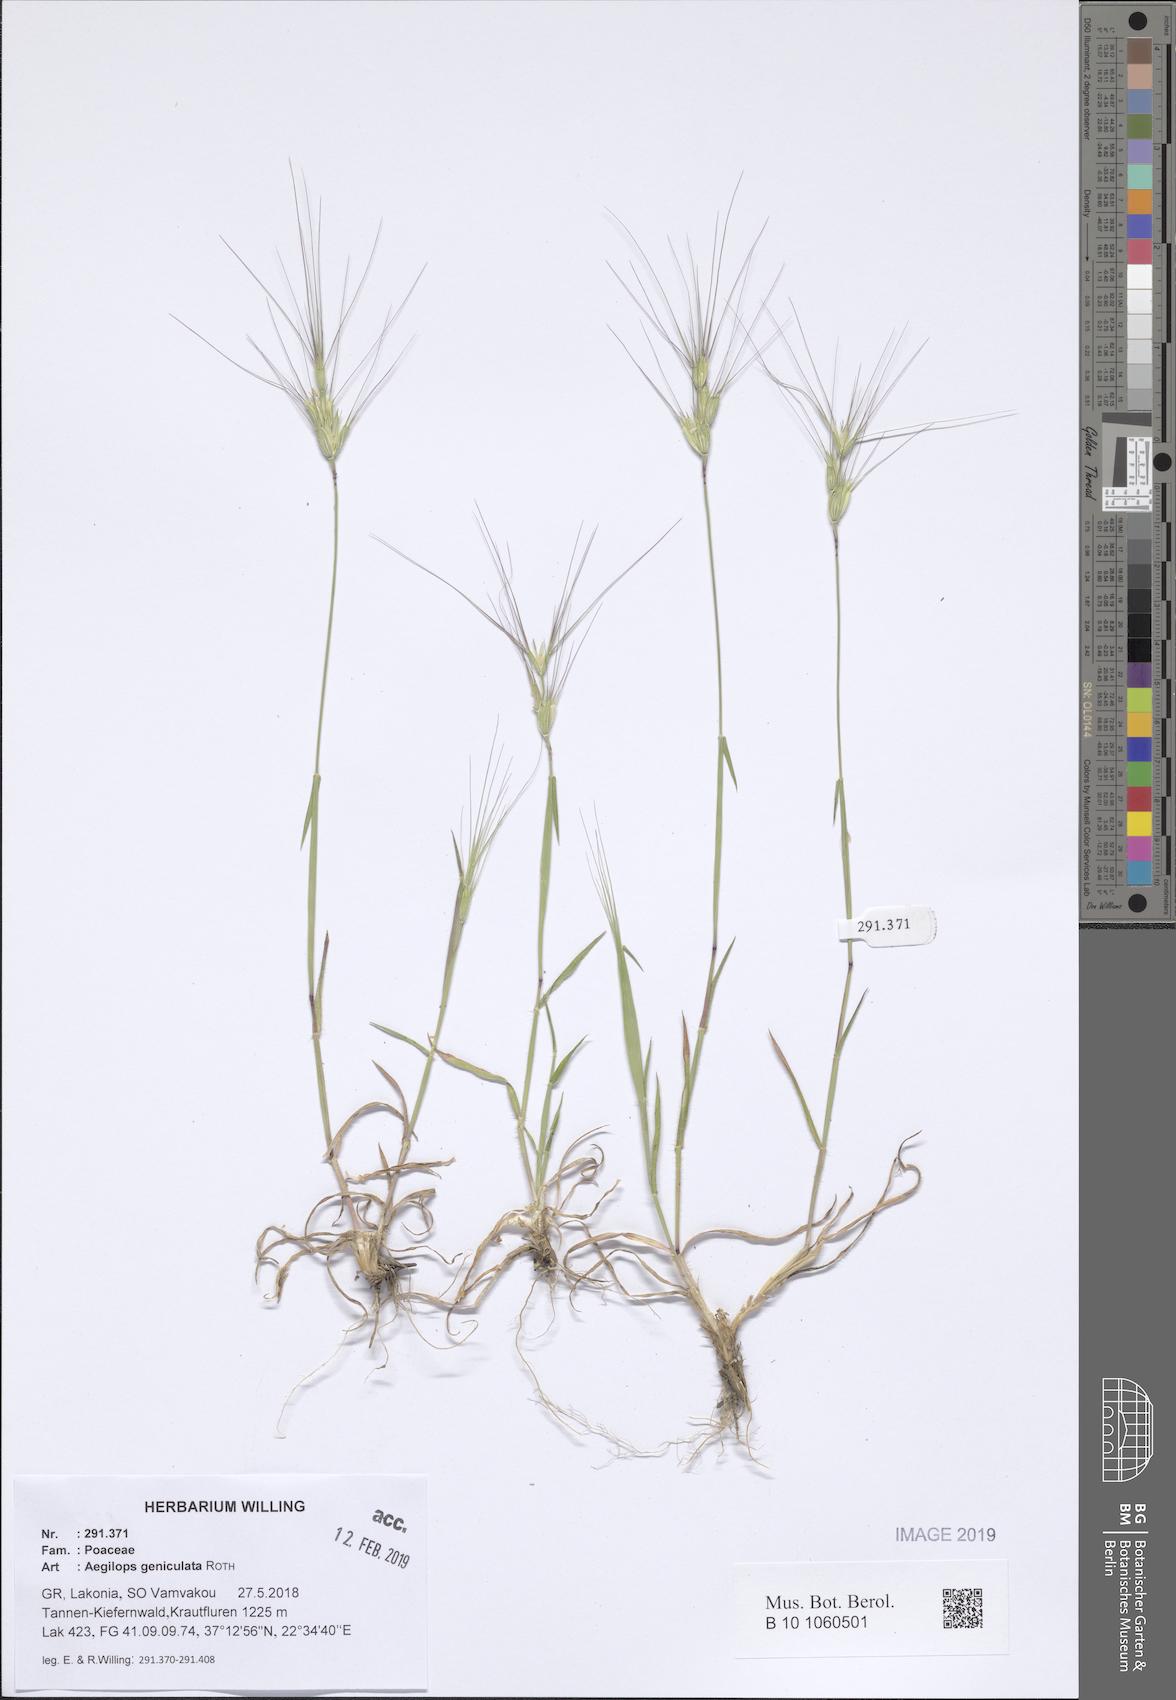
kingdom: Plantae
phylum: Tracheophyta
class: Liliopsida
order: Poales
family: Poaceae
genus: Aegilops
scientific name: Aegilops geniculata
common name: Ovate goat grass
